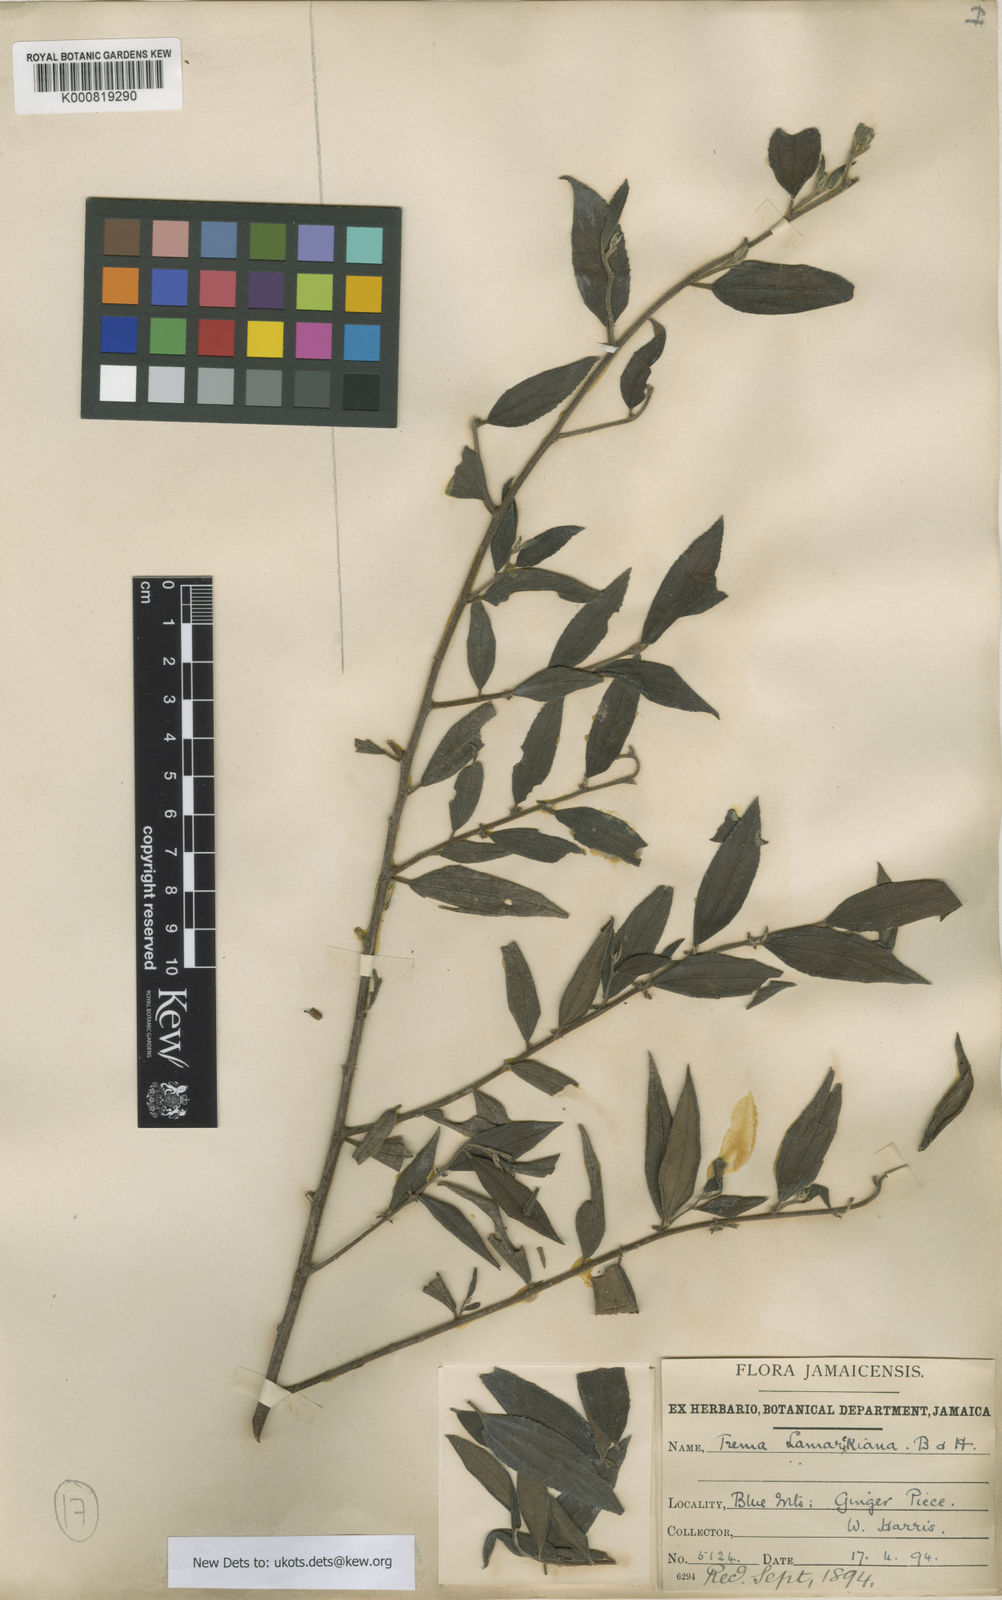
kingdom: Plantae
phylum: Tracheophyta
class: Magnoliopsida
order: Rosales
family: Cannabaceae
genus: Trema
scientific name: Trema lamarckianum
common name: Lamarck's trema
